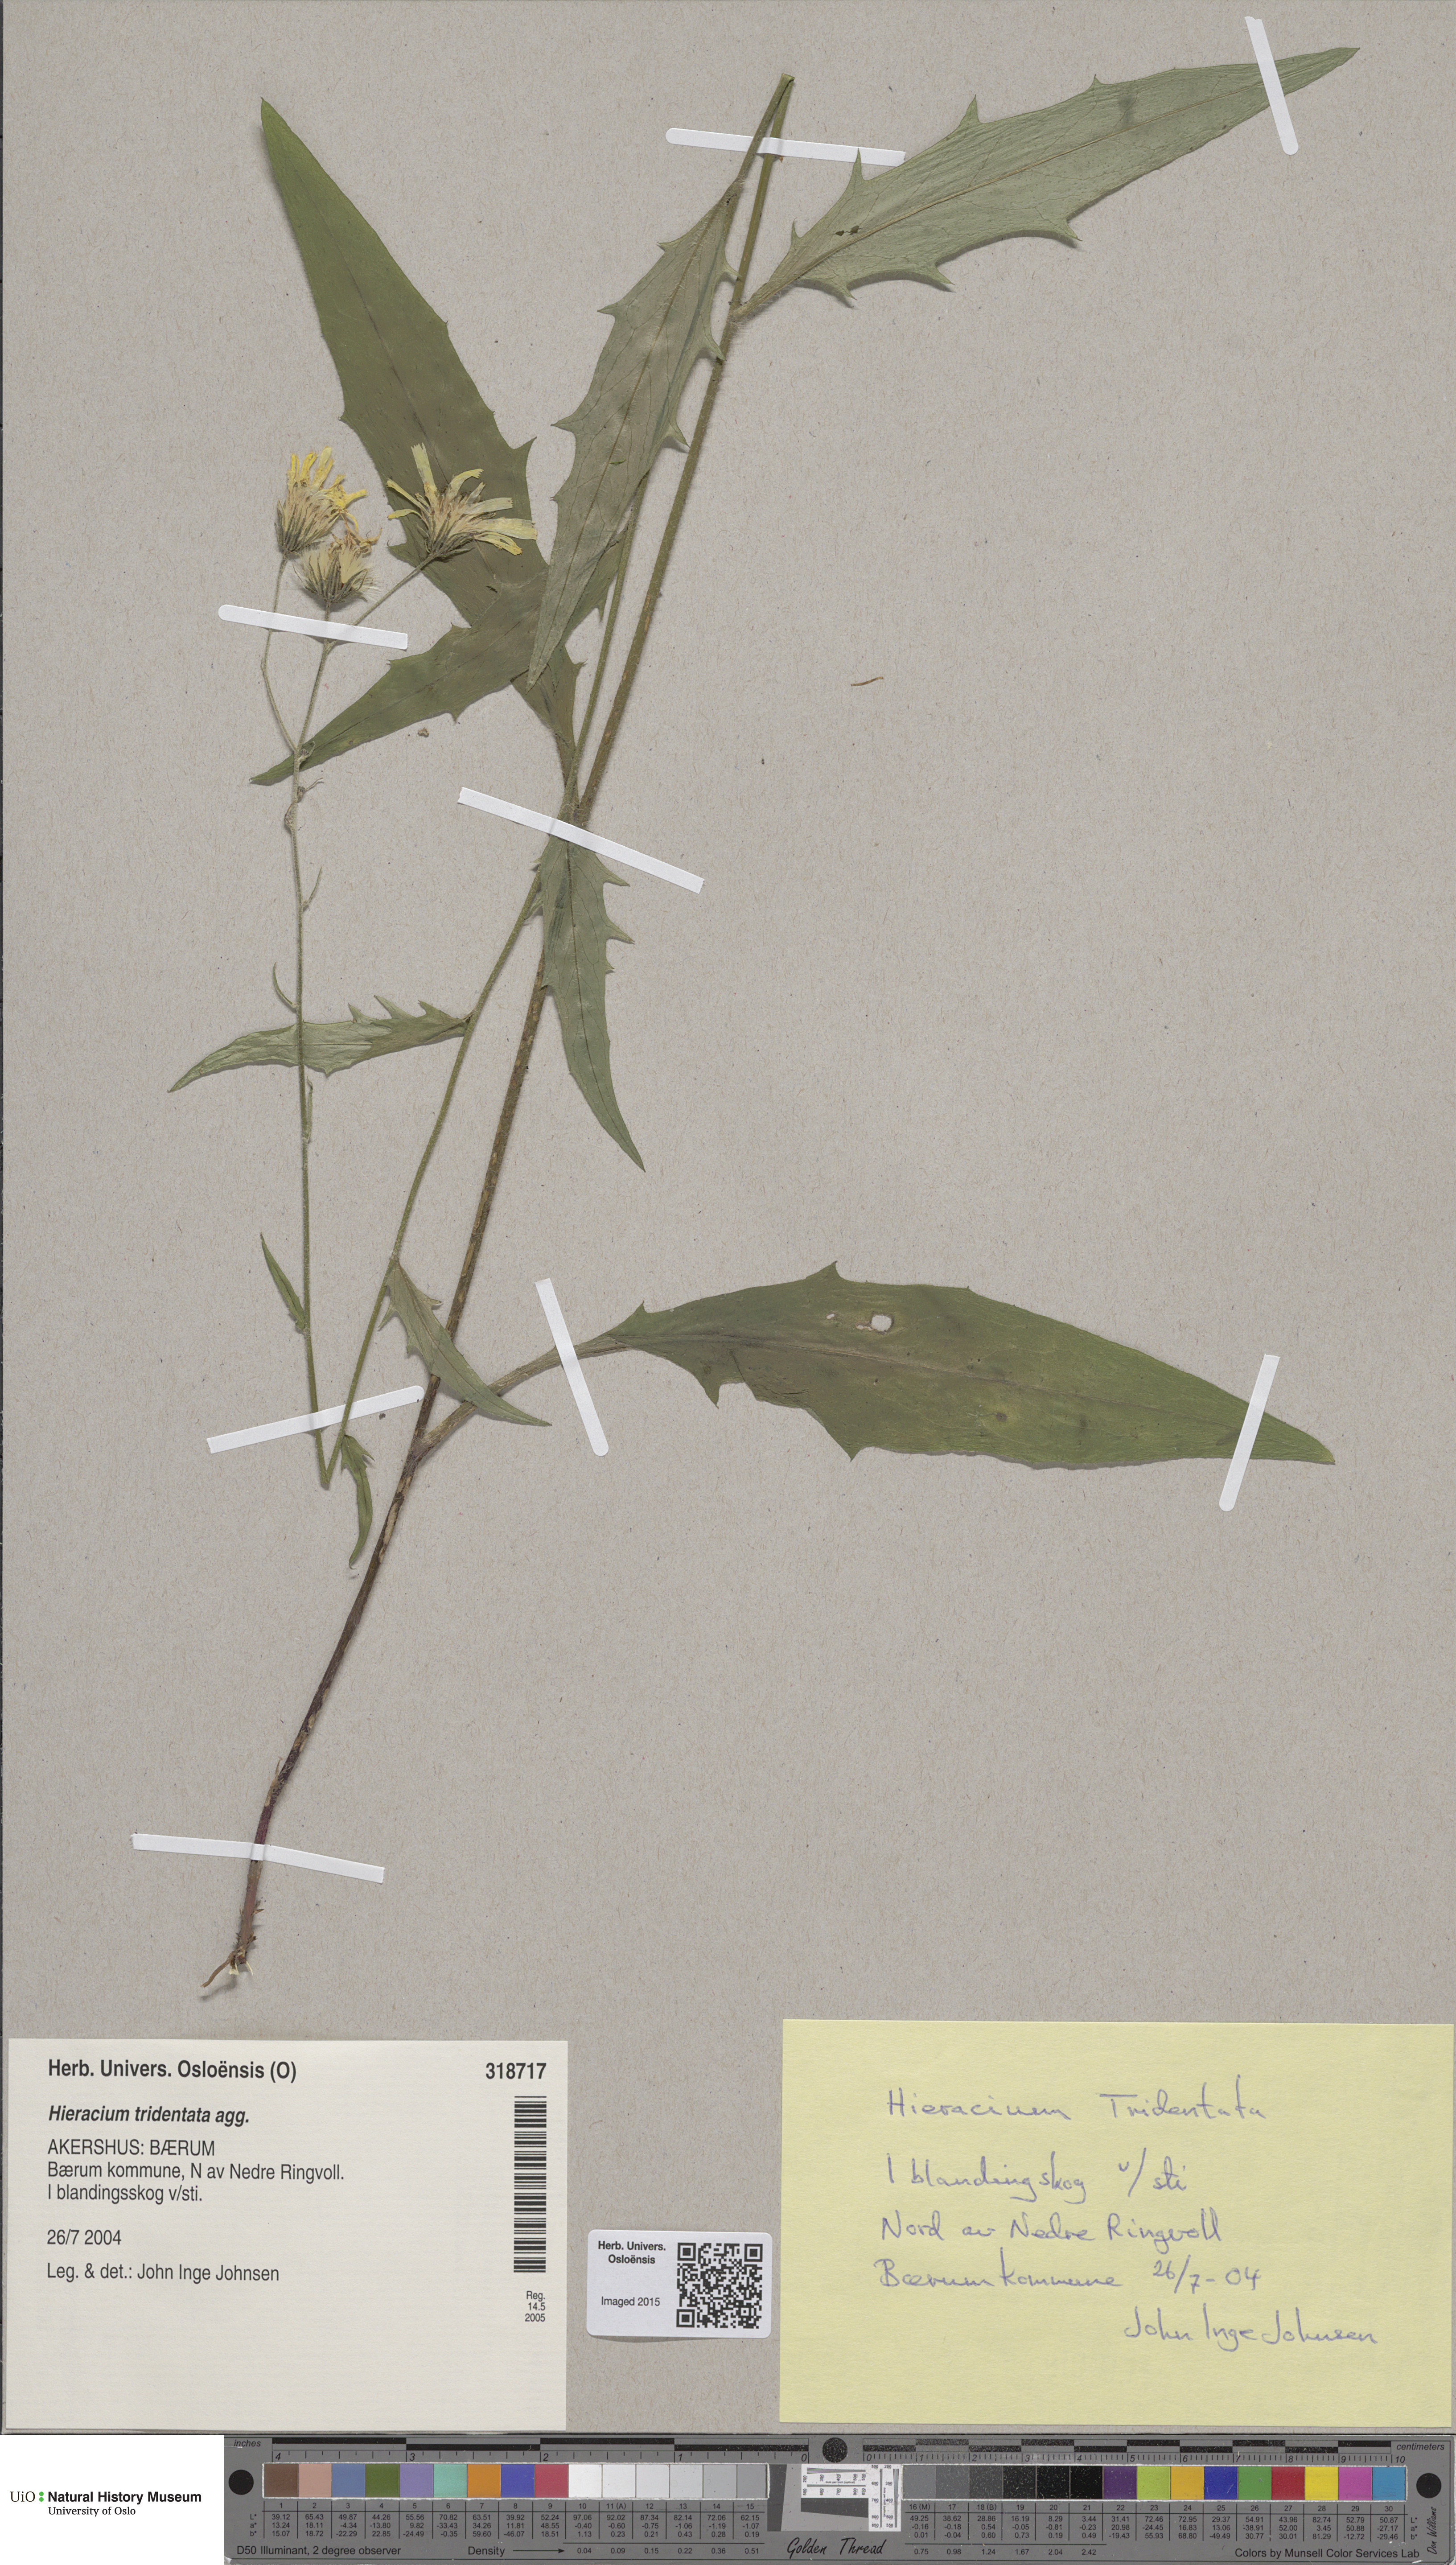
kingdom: Plantae
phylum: Tracheophyta
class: Magnoliopsida
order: Asterales
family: Asteraceae
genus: Hieracium
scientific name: Hieracium tridentatum
